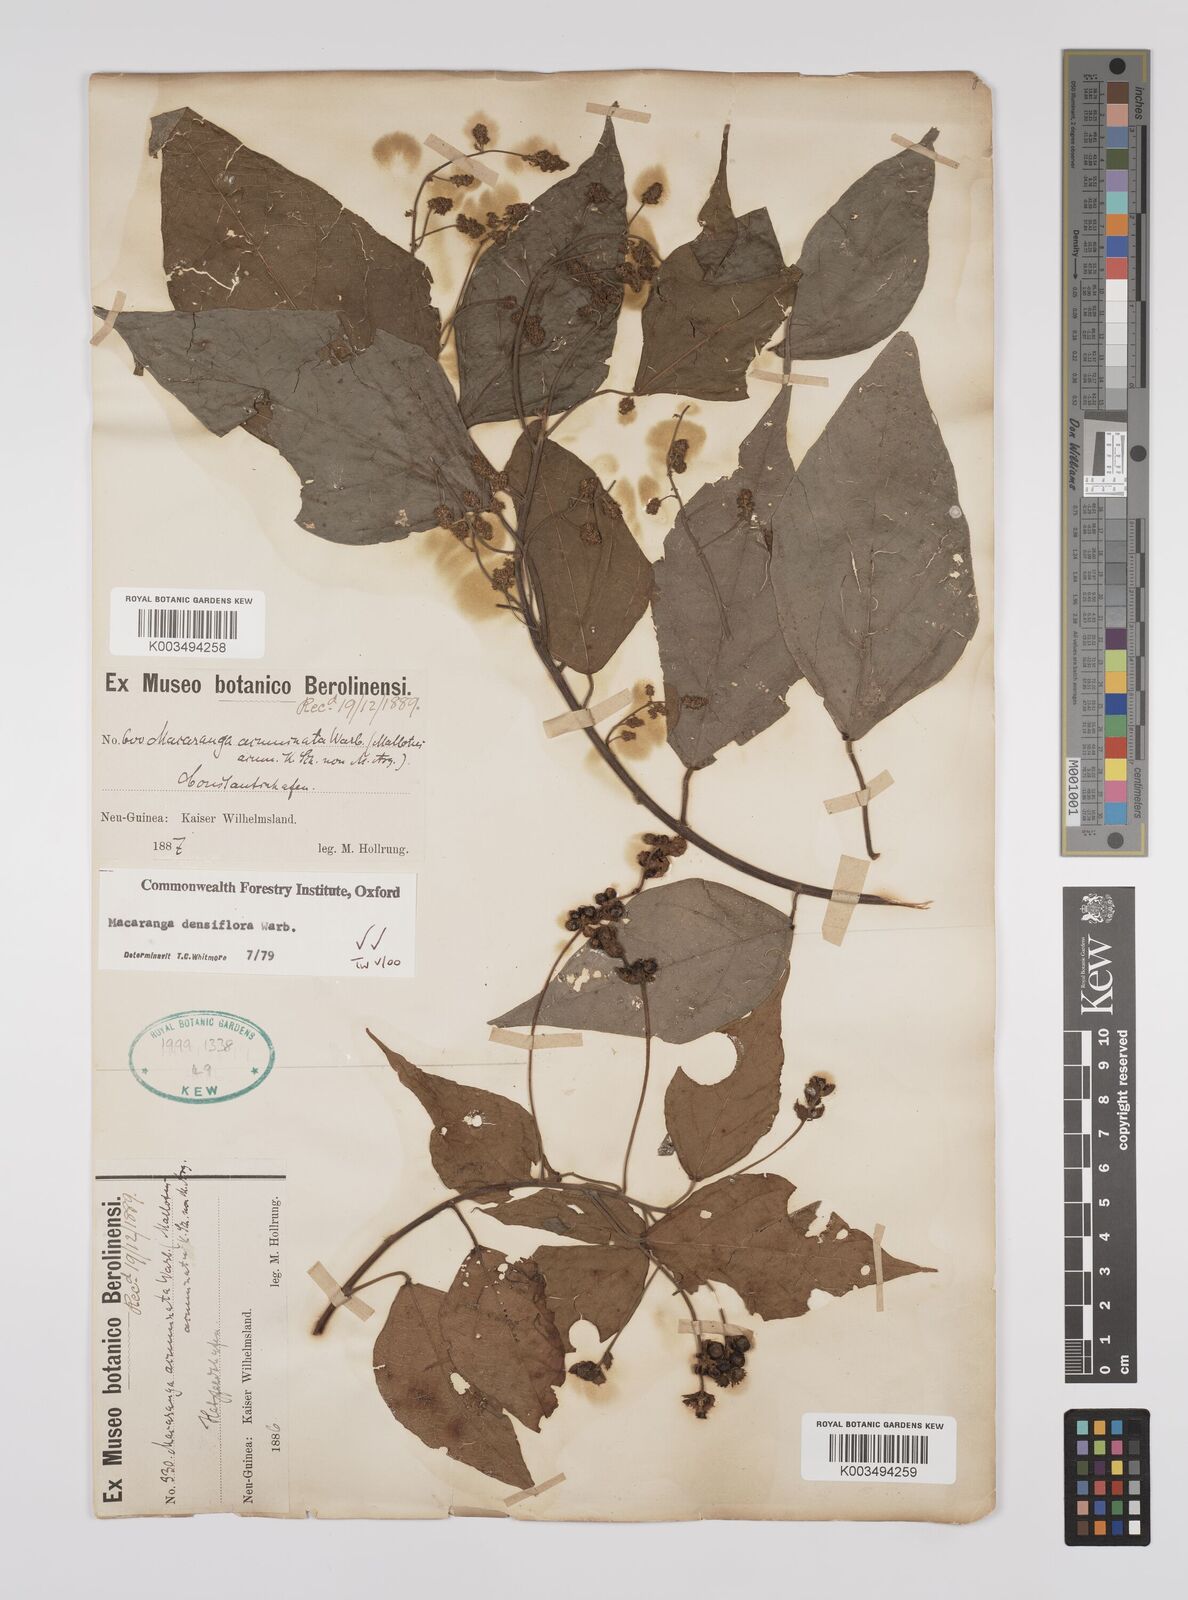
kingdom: Plantae
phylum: Tracheophyta
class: Magnoliopsida
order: Malpighiales
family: Euphorbiaceae
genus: Macaranga
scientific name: Macaranga densiflora
